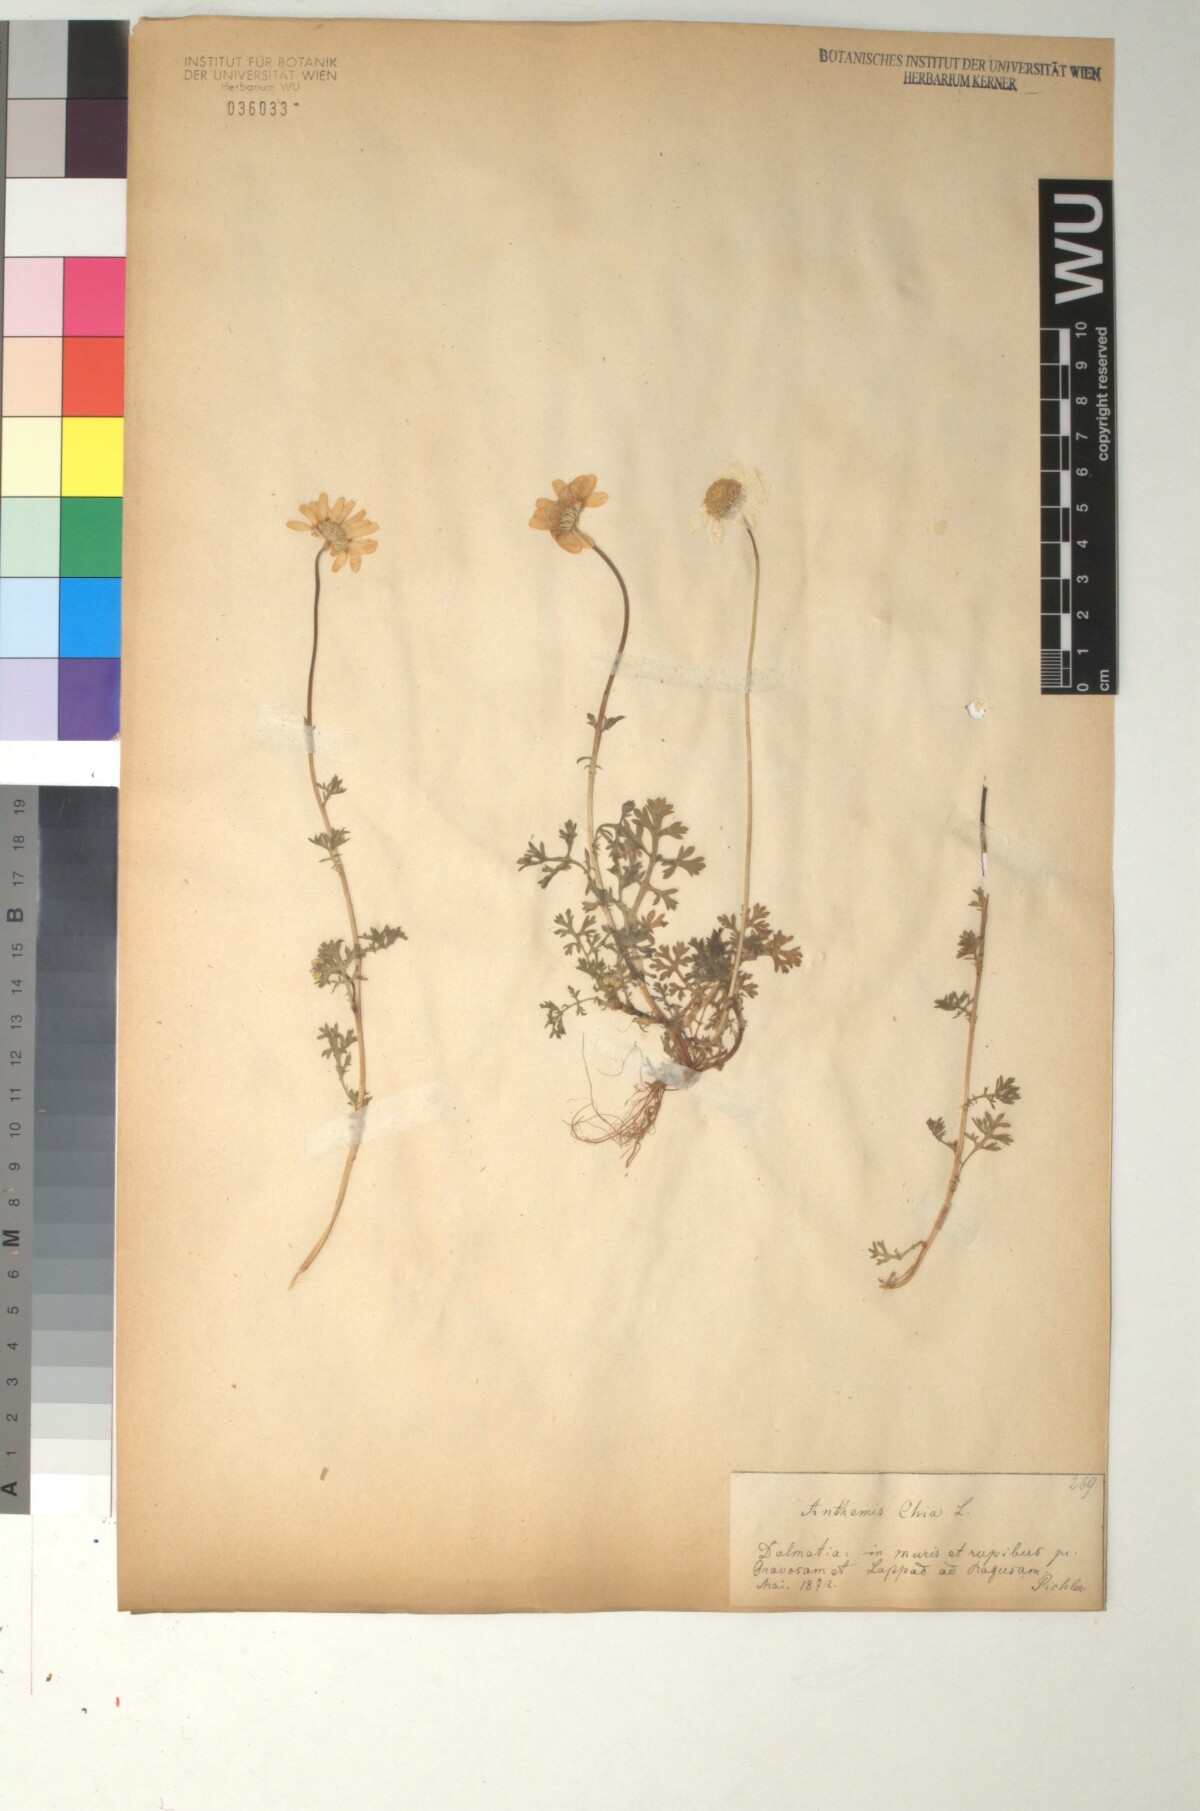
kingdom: Plantae
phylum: Tracheophyta
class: Magnoliopsida
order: Asterales
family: Asteraceae
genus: Anthemis
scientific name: Anthemis chia
